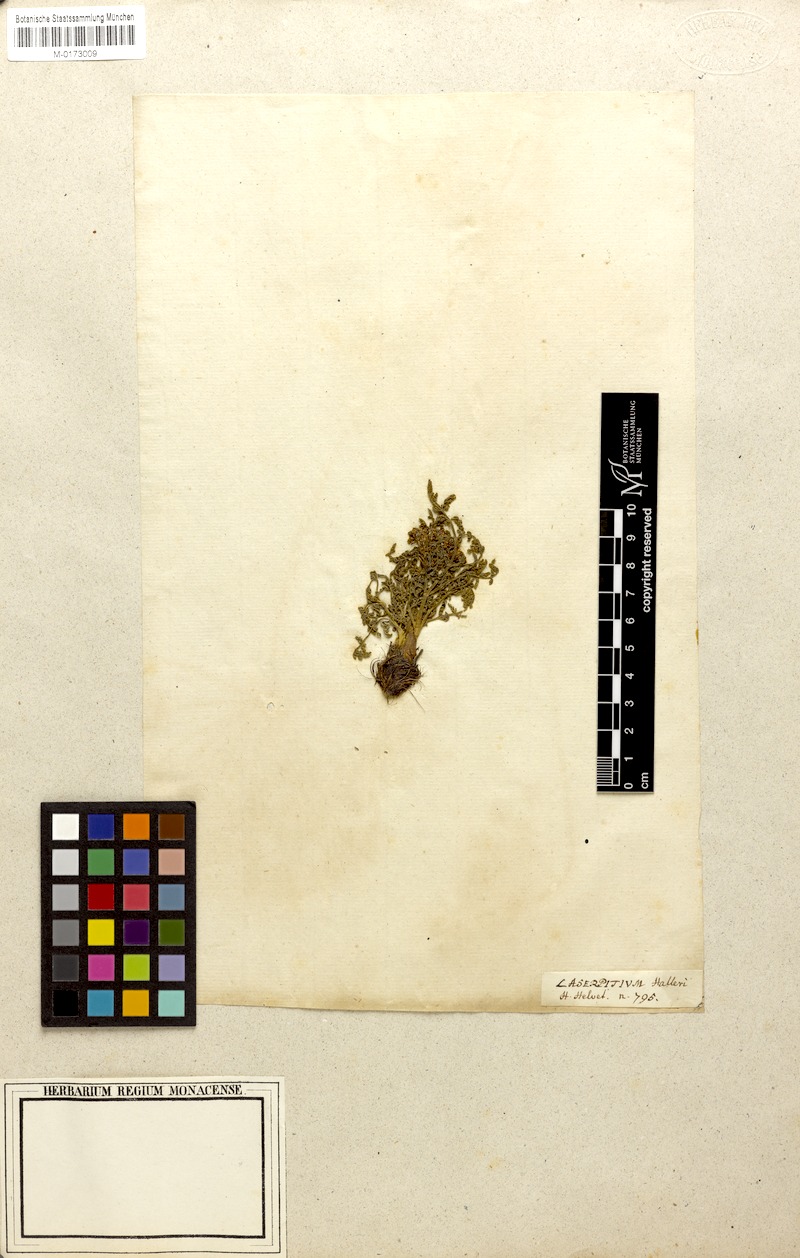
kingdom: Plantae
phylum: Tracheophyta
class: Magnoliopsida
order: Apiales
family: Apiaceae
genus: Laserpitium
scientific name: Laserpitium halleri
